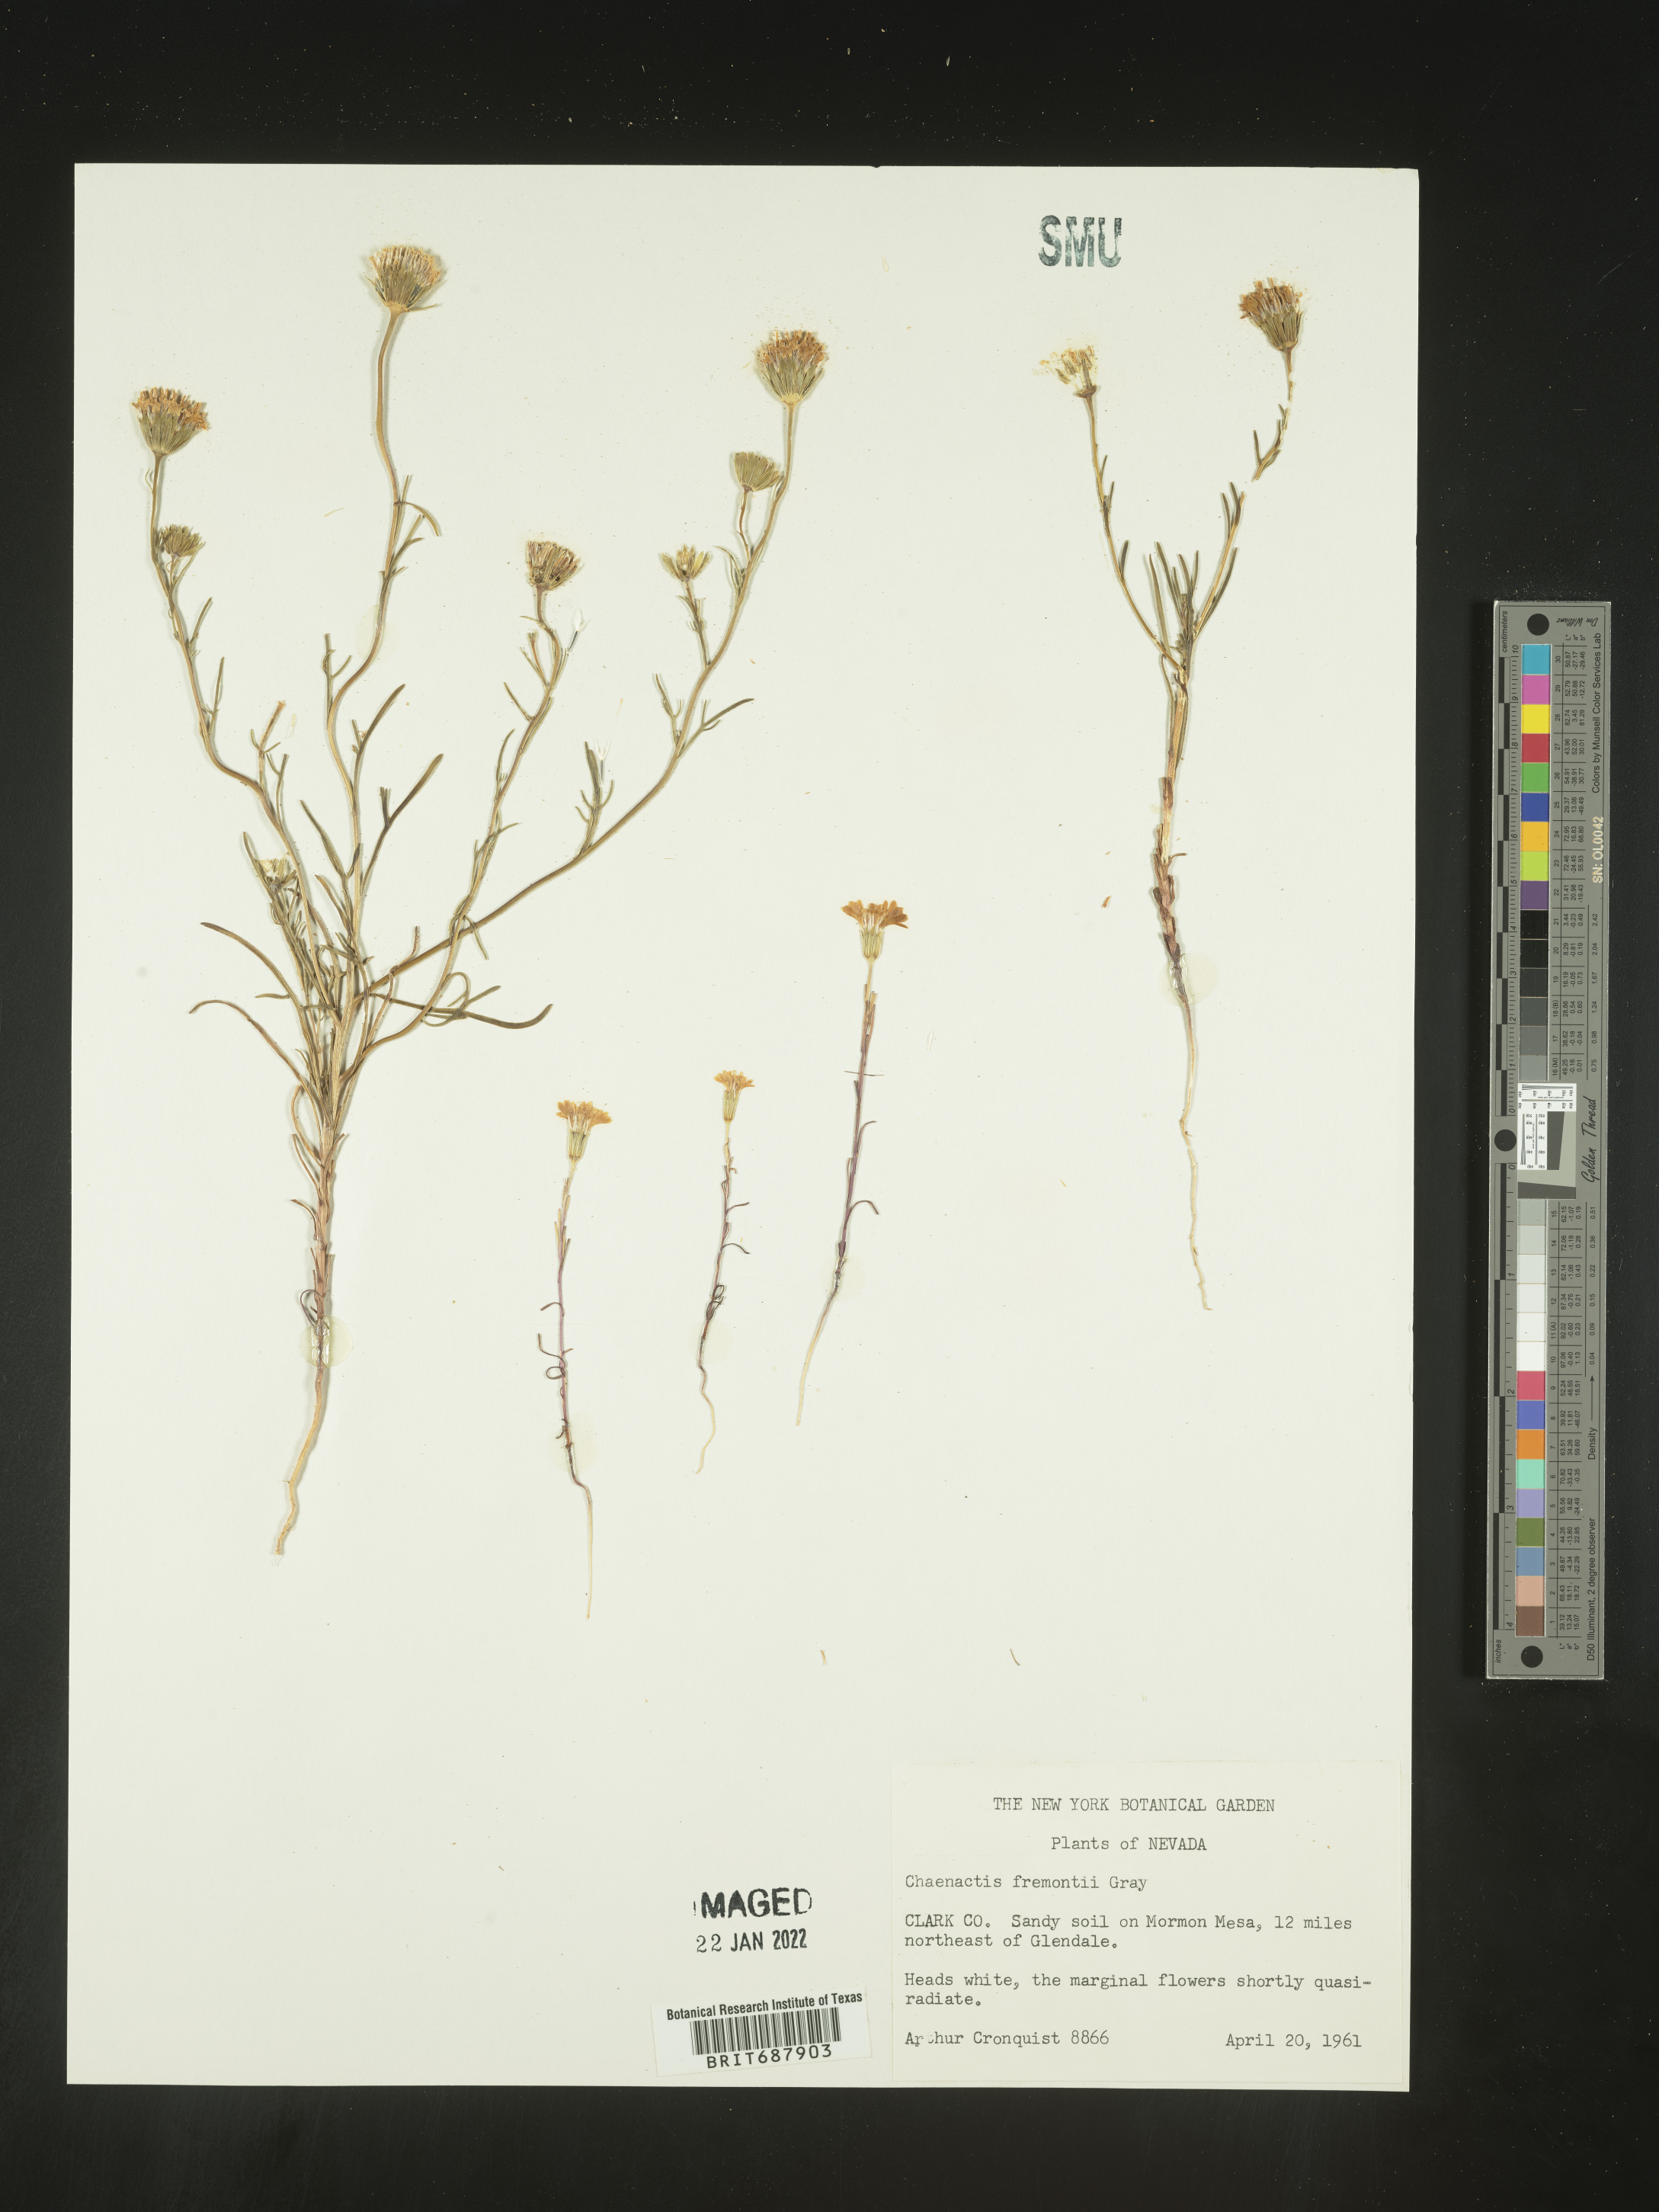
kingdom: Plantae
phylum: Tracheophyta
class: Magnoliopsida
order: Asterales
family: Asteraceae
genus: Chaenactis
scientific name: Chaenactis fremontii
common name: Fremont pincushion
